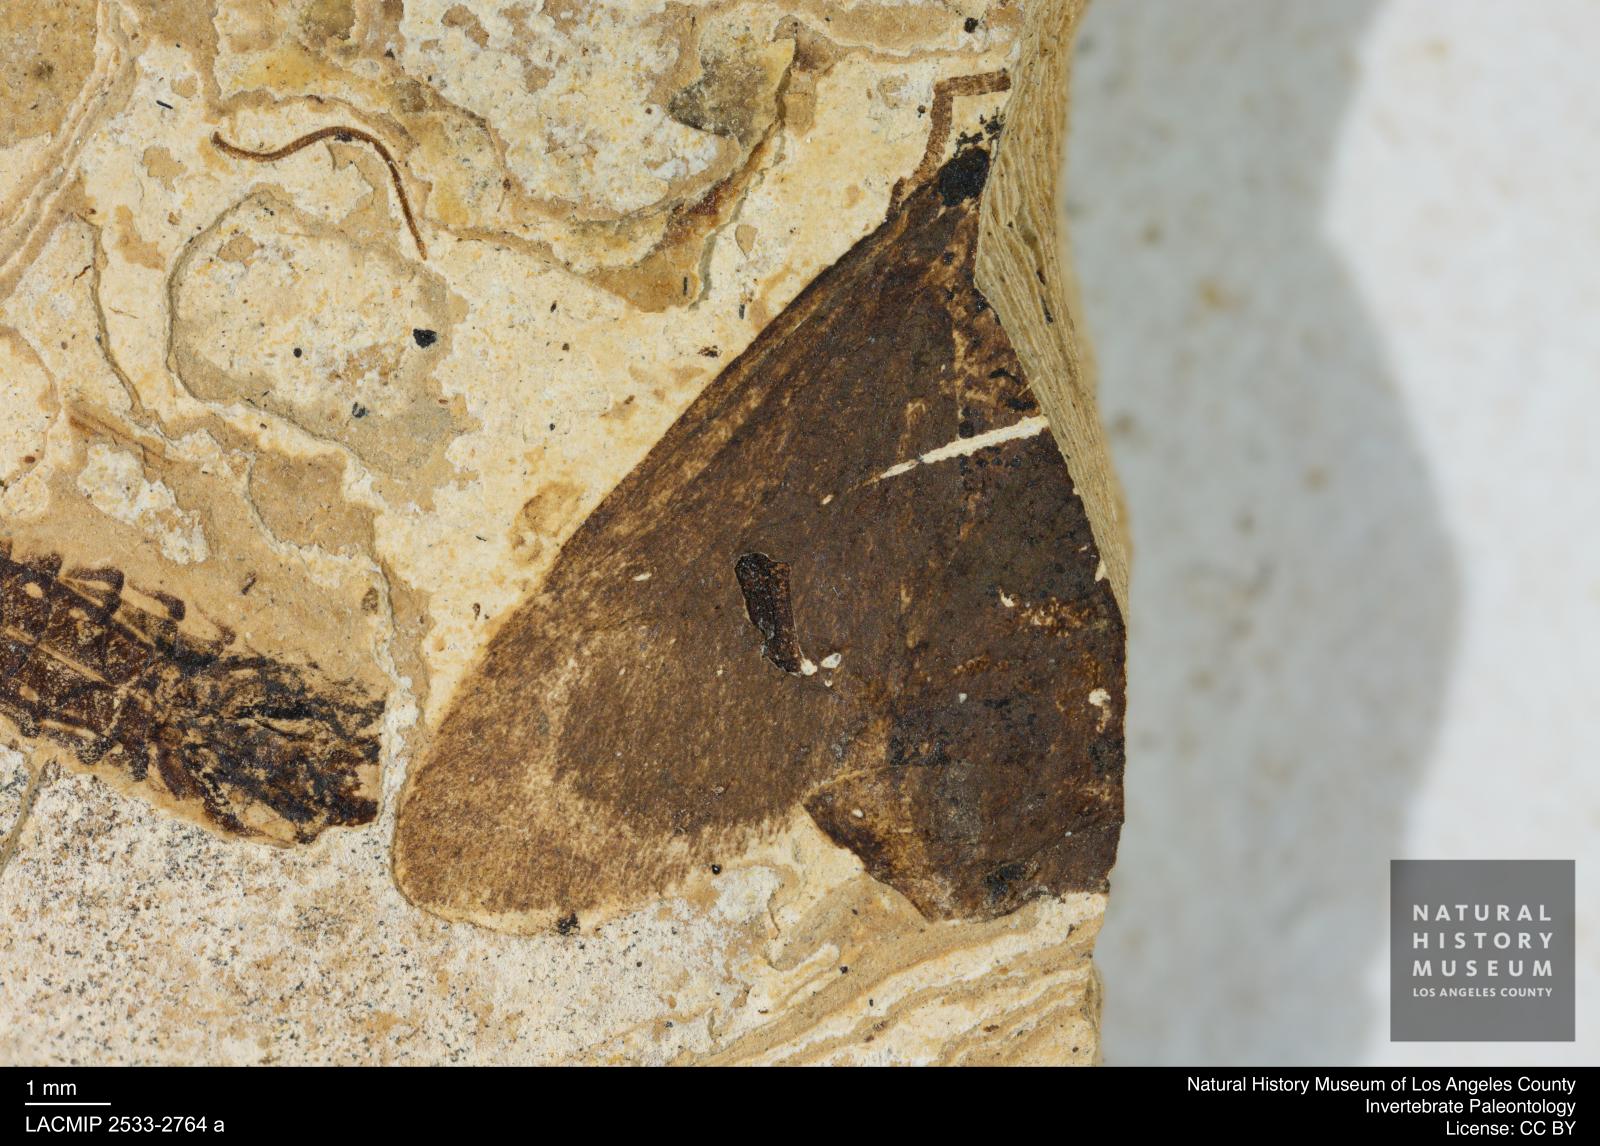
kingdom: Animalia
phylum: Arthropoda
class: Insecta
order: Lepidoptera
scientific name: Lepidoptera
